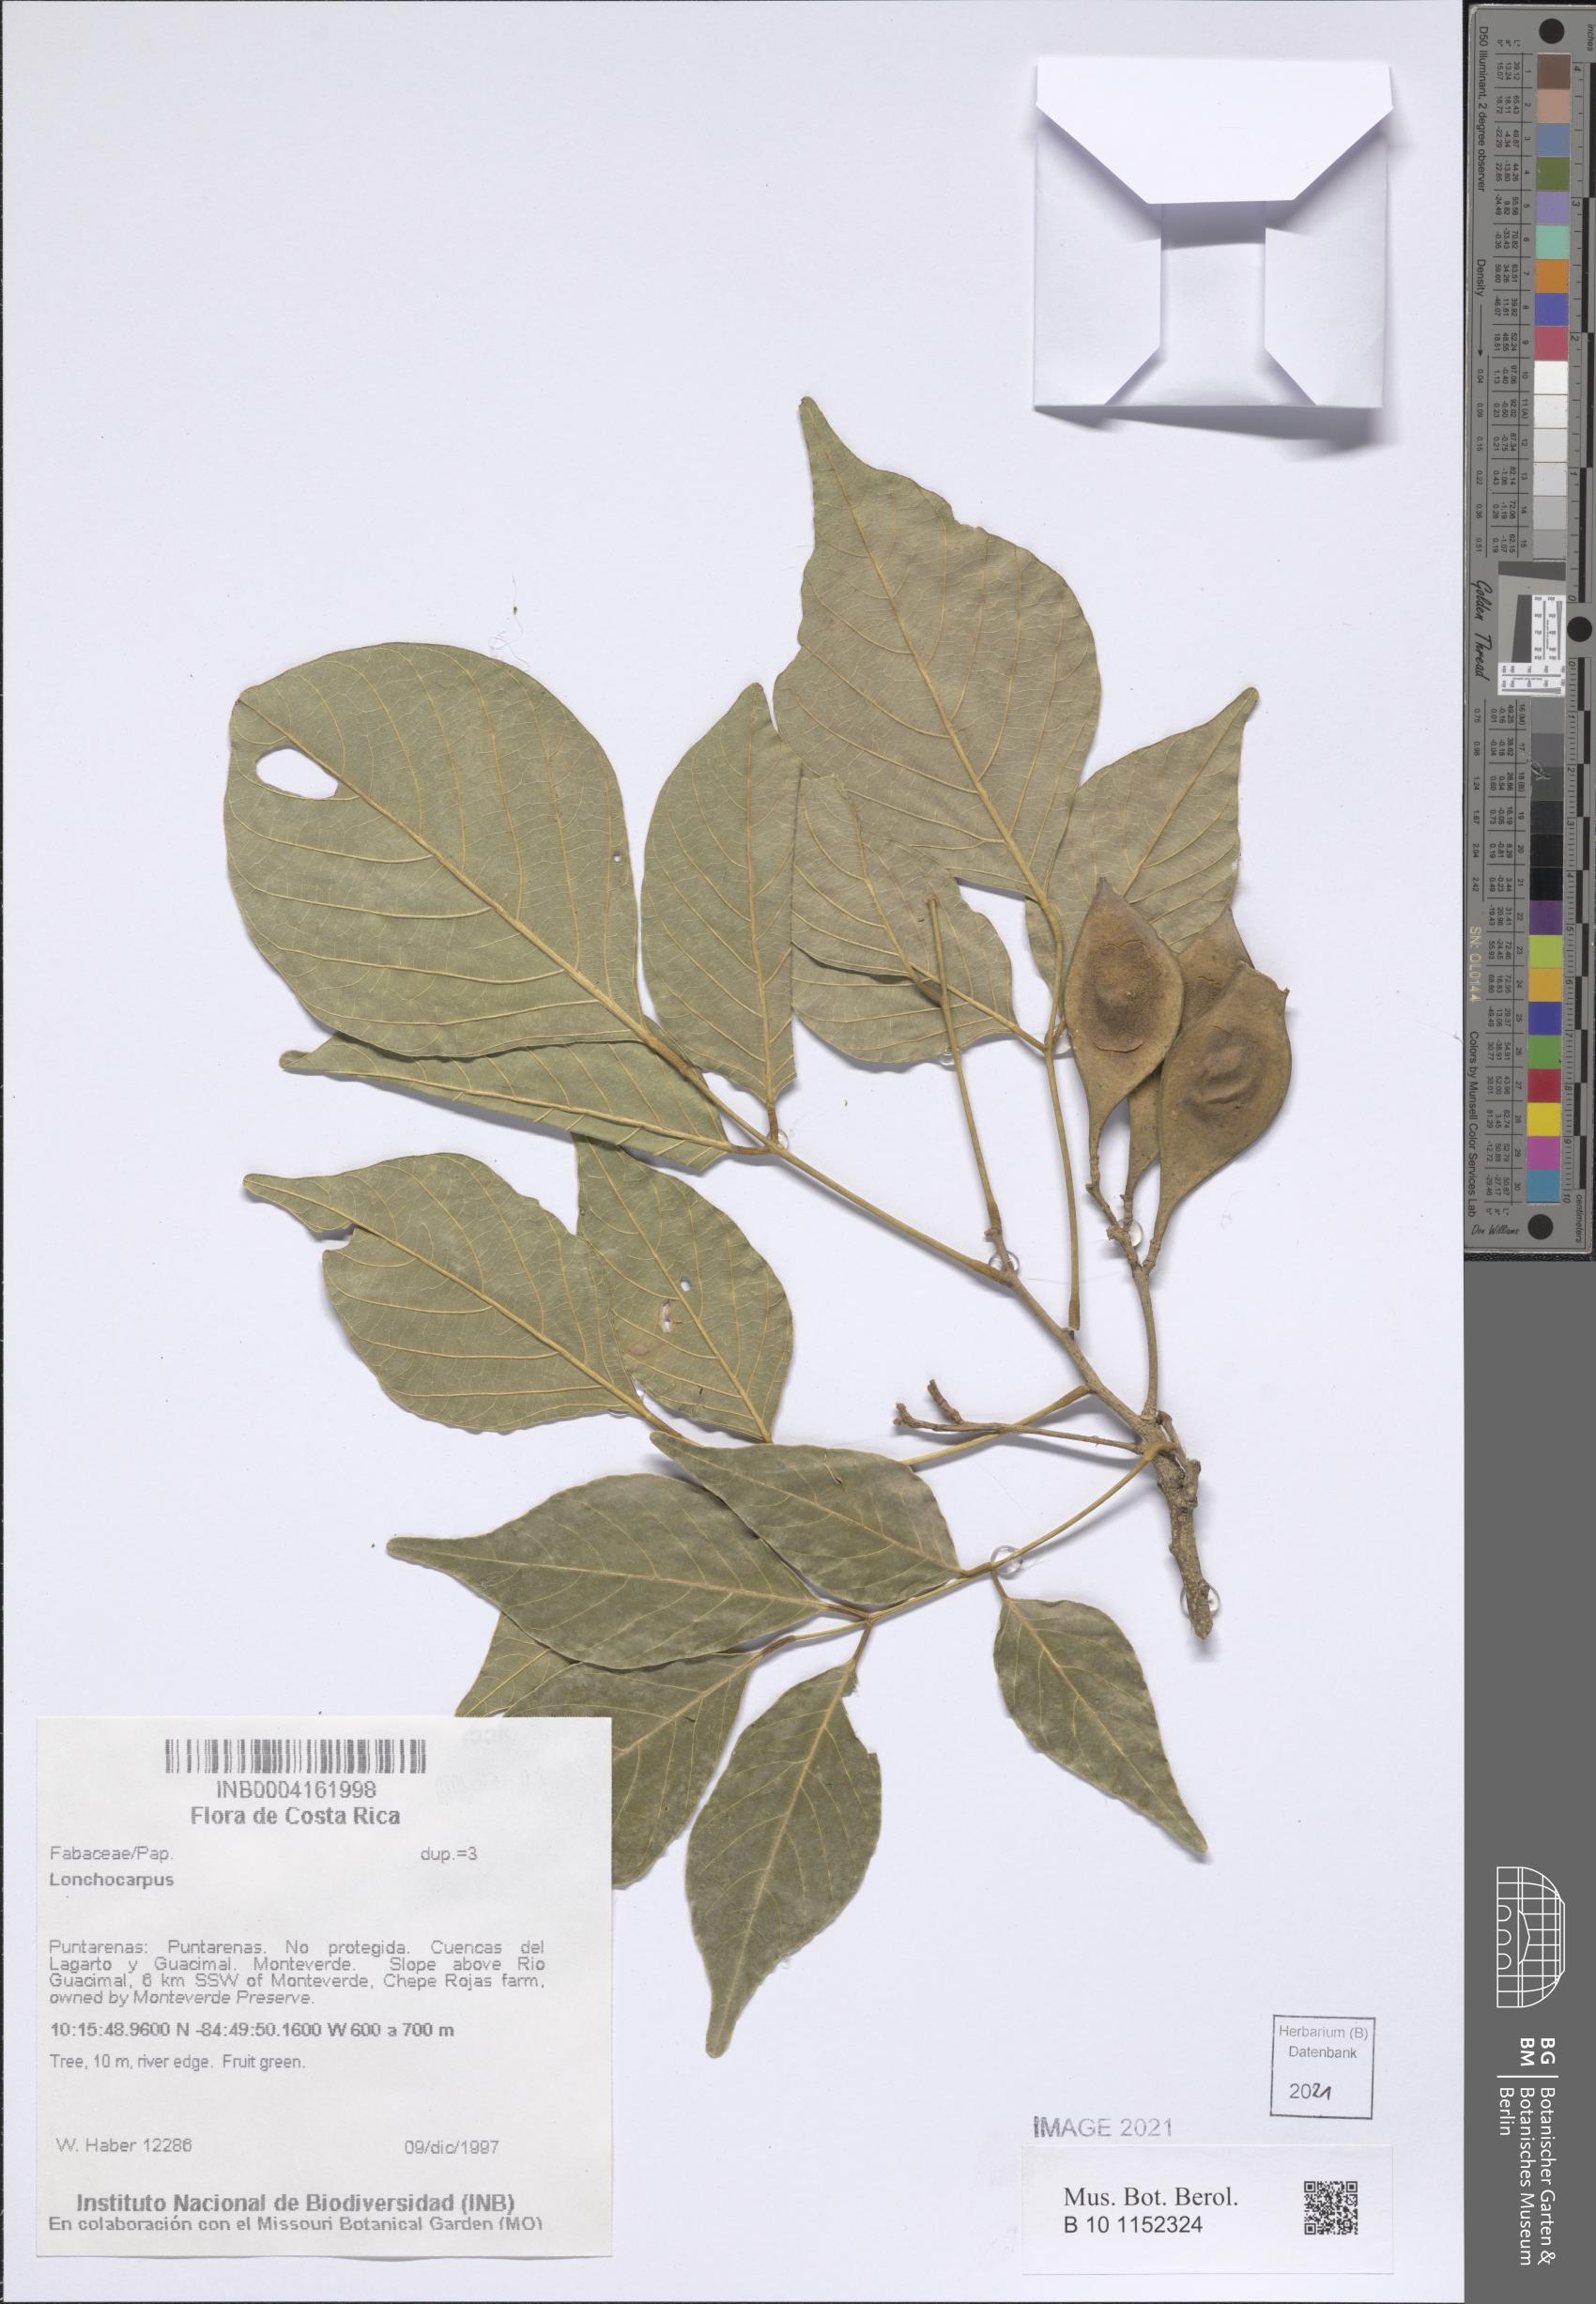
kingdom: Plantae
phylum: Tracheophyta
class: Magnoliopsida
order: Fabales
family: Fabaceae
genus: Lonchocarpus
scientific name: Lonchocarpus
